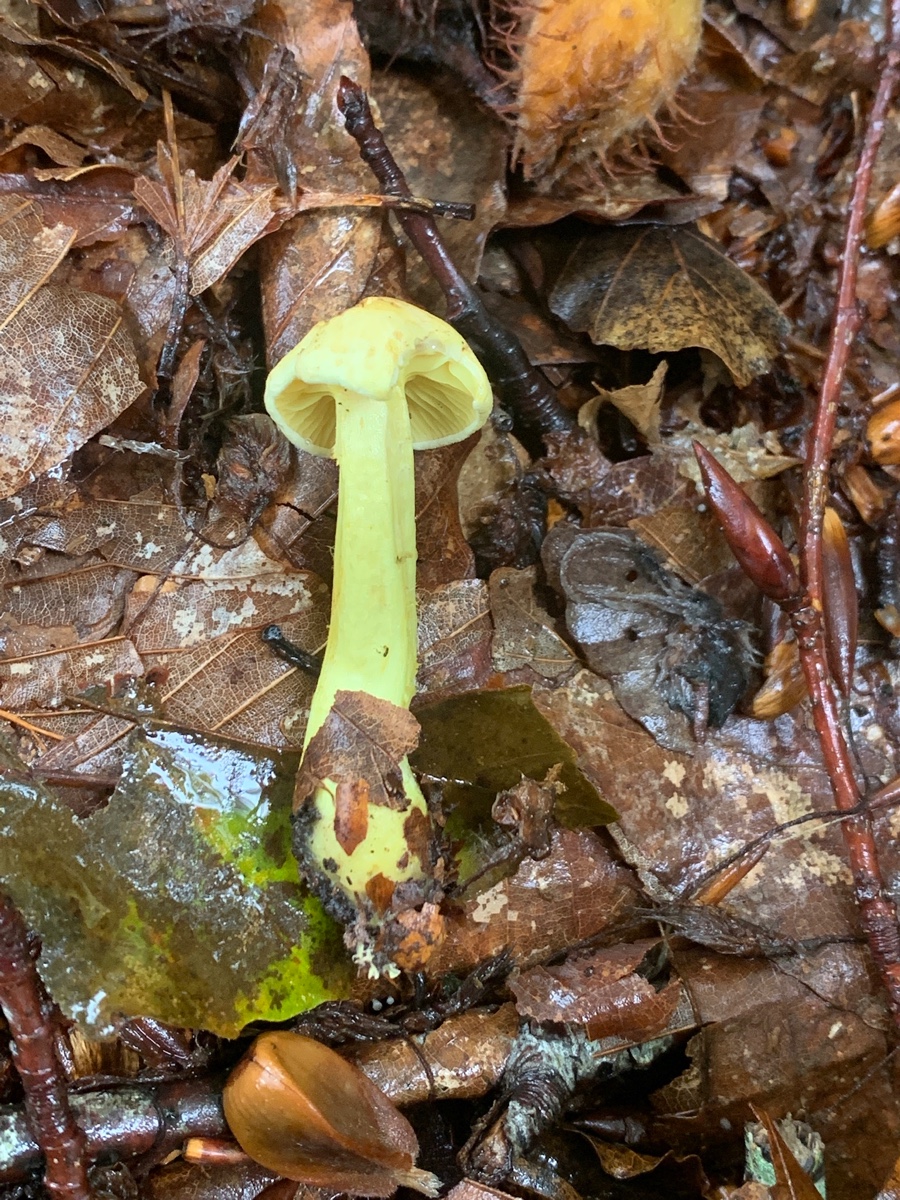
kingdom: Fungi
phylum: Basidiomycota
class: Agaricomycetes
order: Agaricales
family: Tricholomataceae
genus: Tricholoma
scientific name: Tricholoma sulphureum
